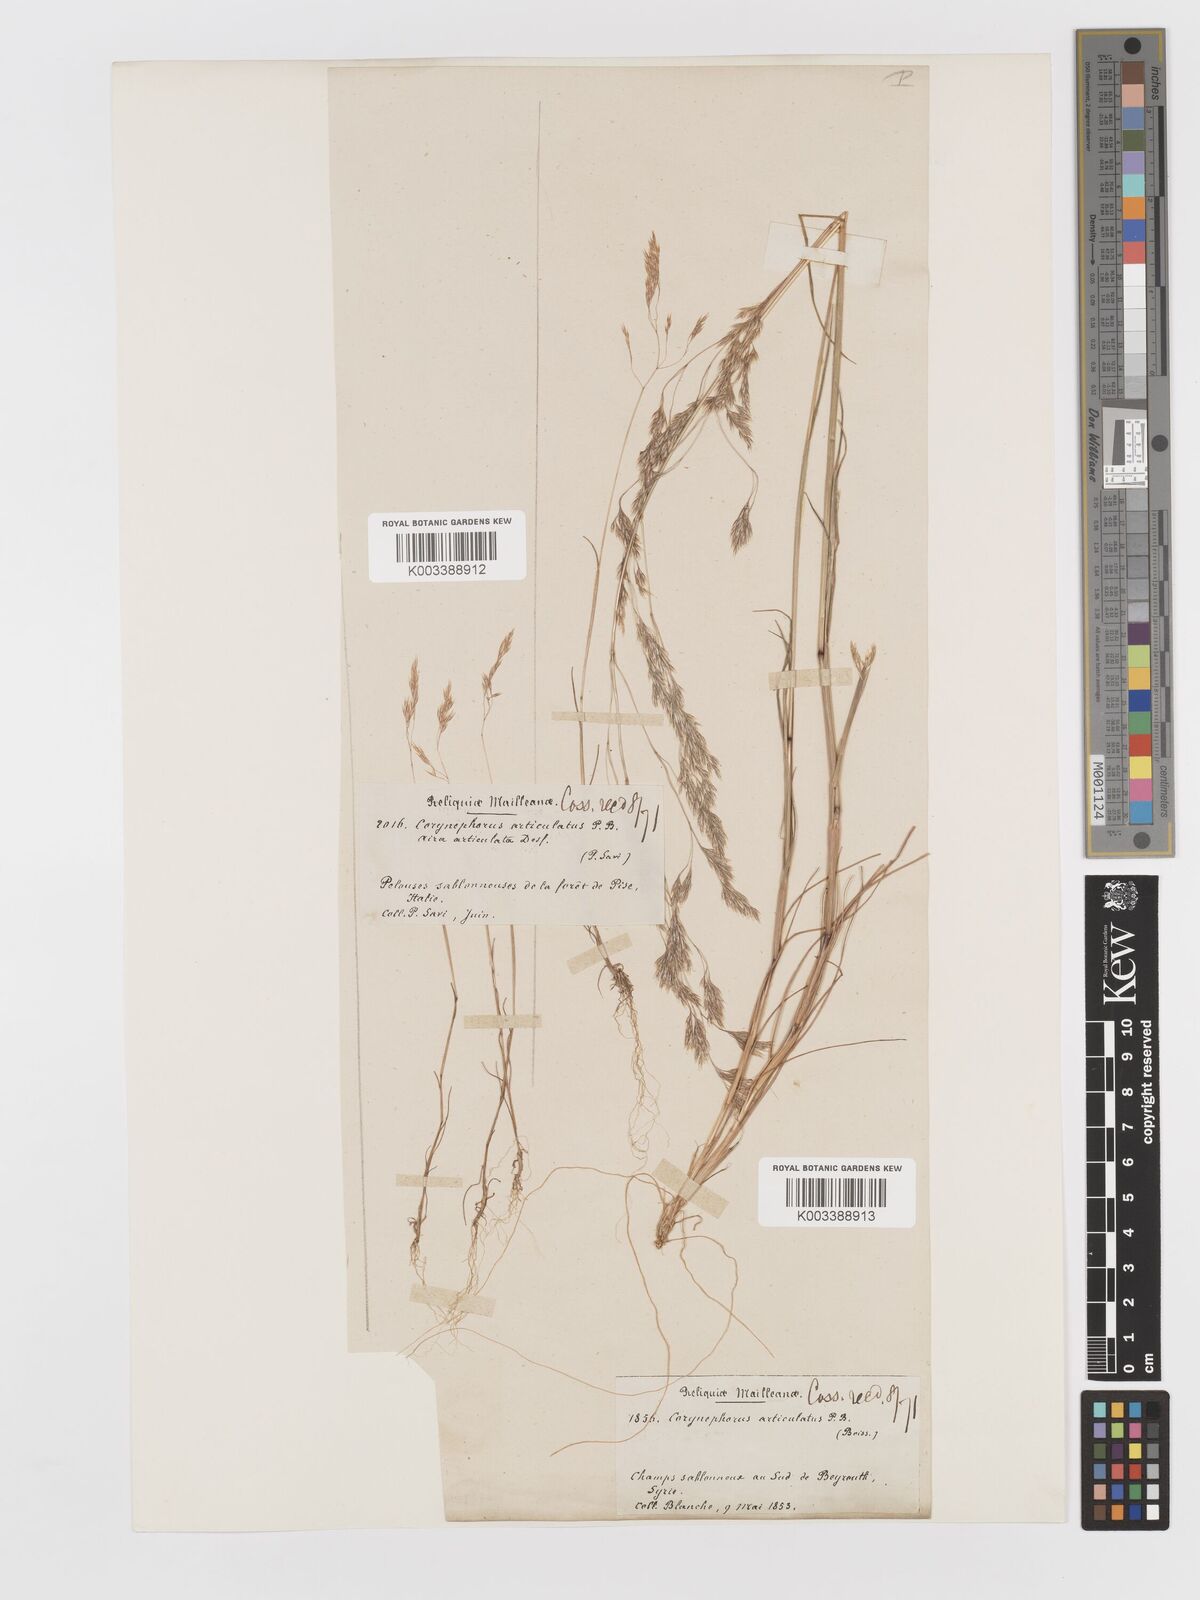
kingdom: Plantae
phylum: Tracheophyta
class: Liliopsida
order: Poales
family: Poaceae
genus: Corynephorus
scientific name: Corynephorus divaricatus
